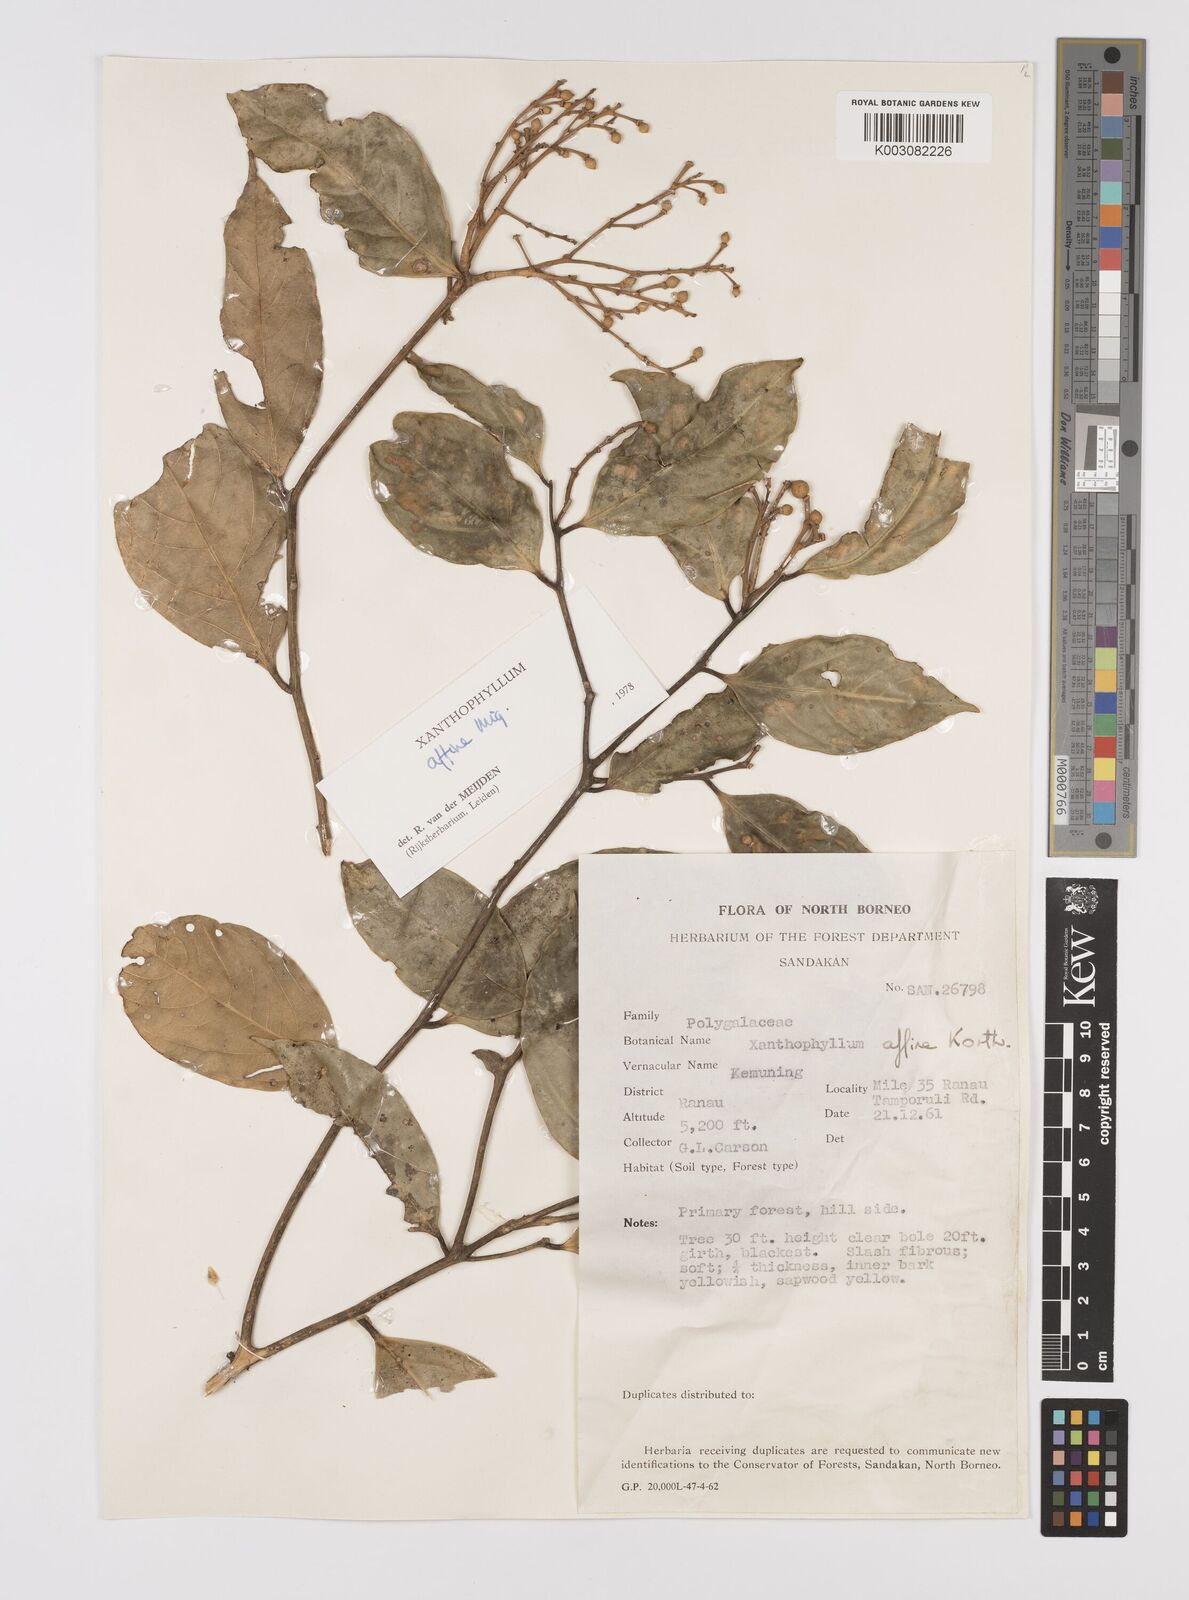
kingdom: Plantae
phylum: Tracheophyta
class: Magnoliopsida
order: Fabales
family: Polygalaceae
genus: Xanthophyllum
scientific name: Xanthophyllum flavescens
